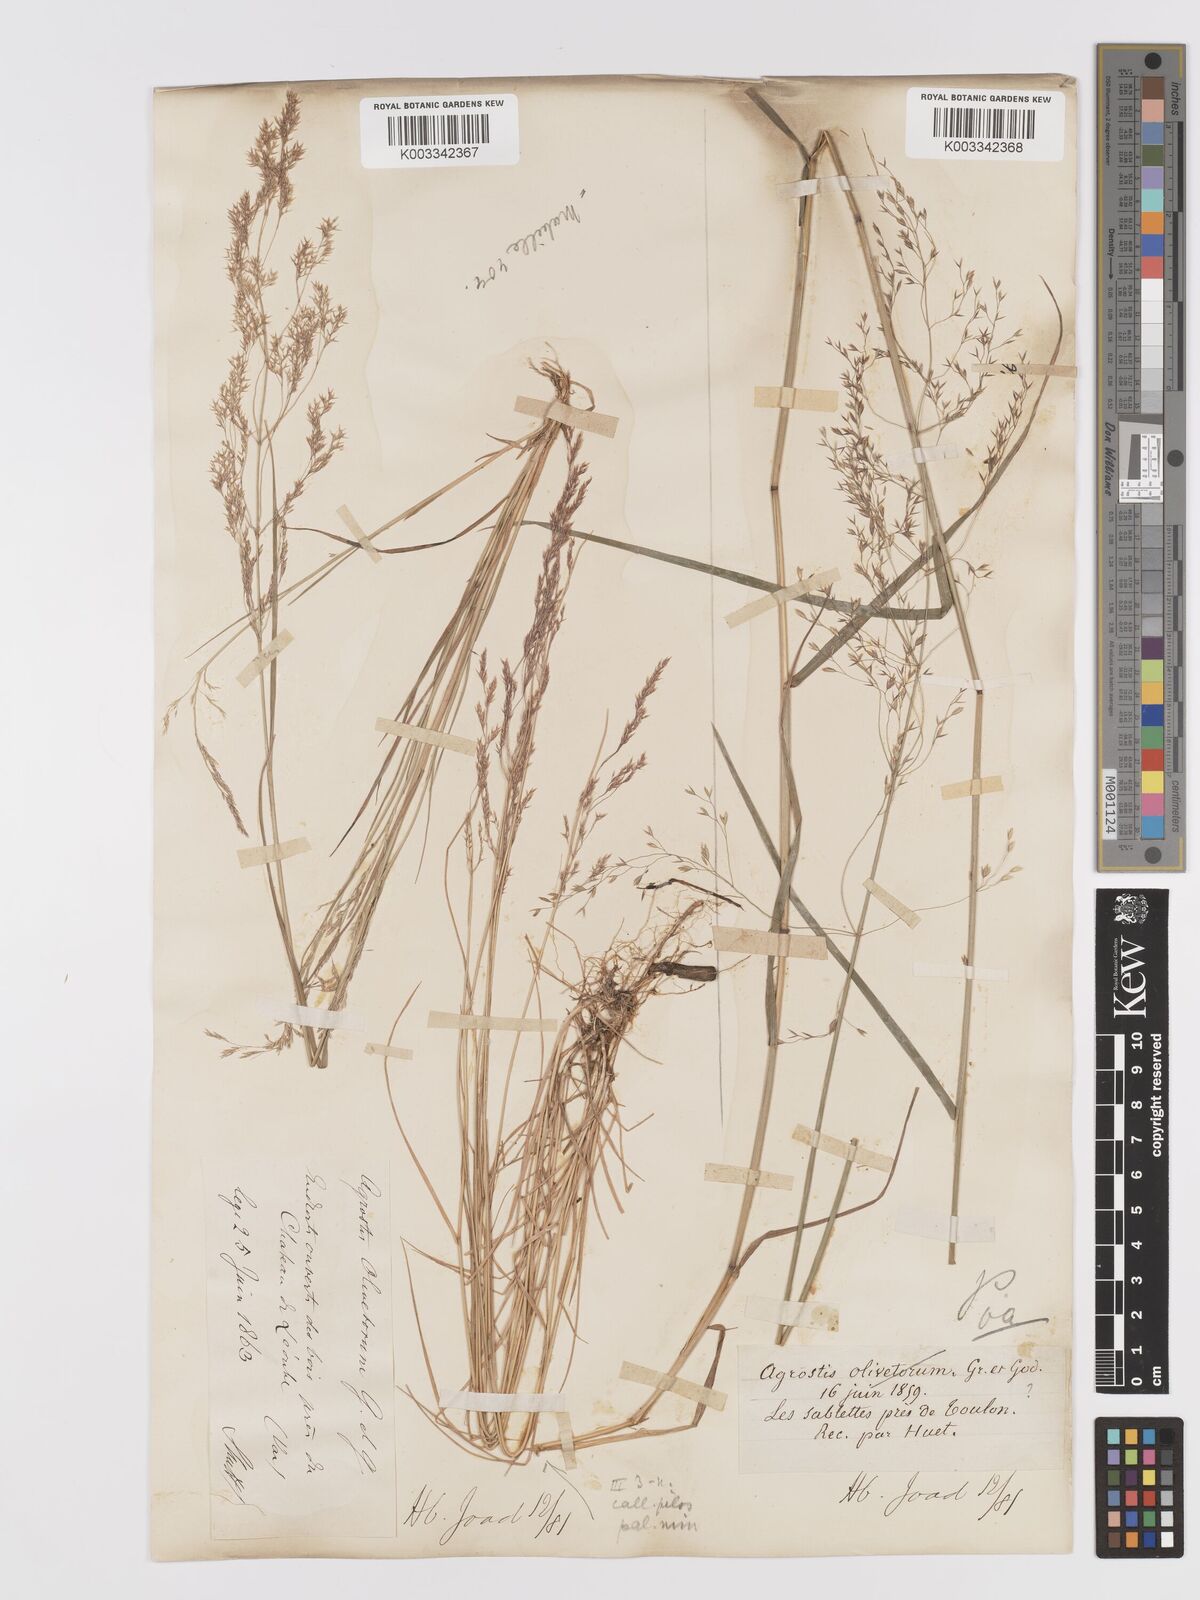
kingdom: Plantae
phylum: Tracheophyta
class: Liliopsida
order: Poales
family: Poaceae
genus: Agrostis
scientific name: Agrostis castellana
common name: Highland bent
